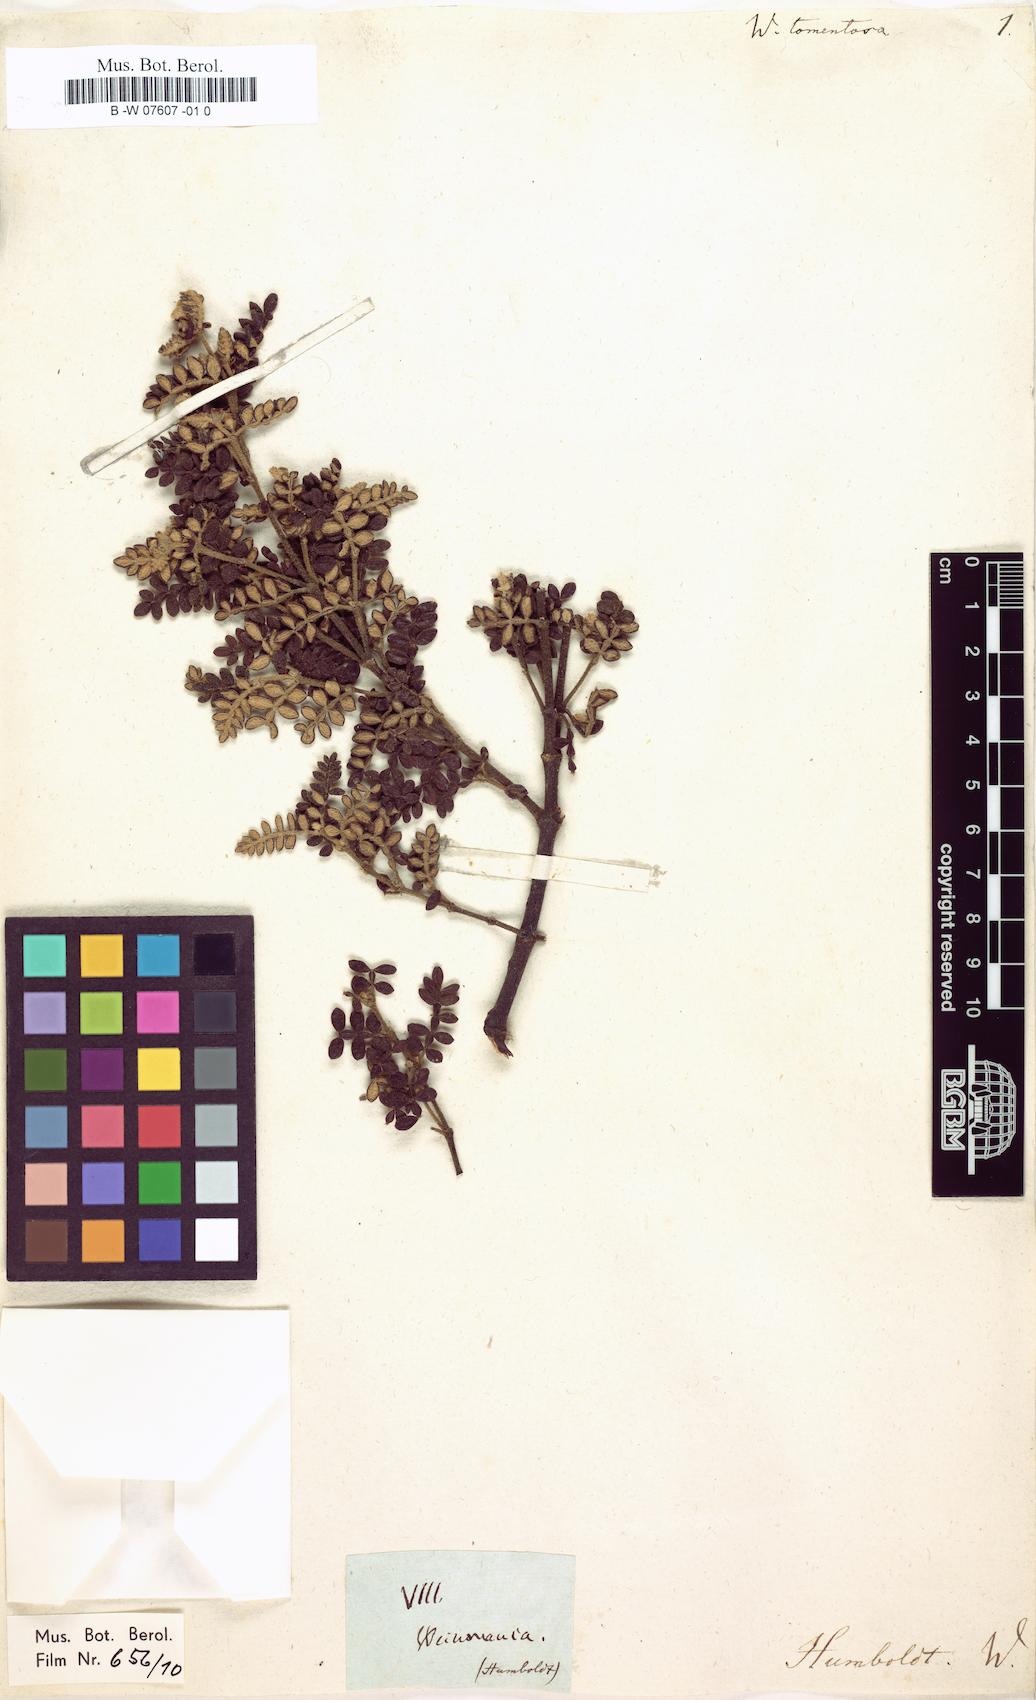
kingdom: Plantae
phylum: Tracheophyta
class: Magnoliopsida
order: Oxalidales
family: Cunoniaceae
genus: Weinmannia
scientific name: Weinmannia tomentosa
